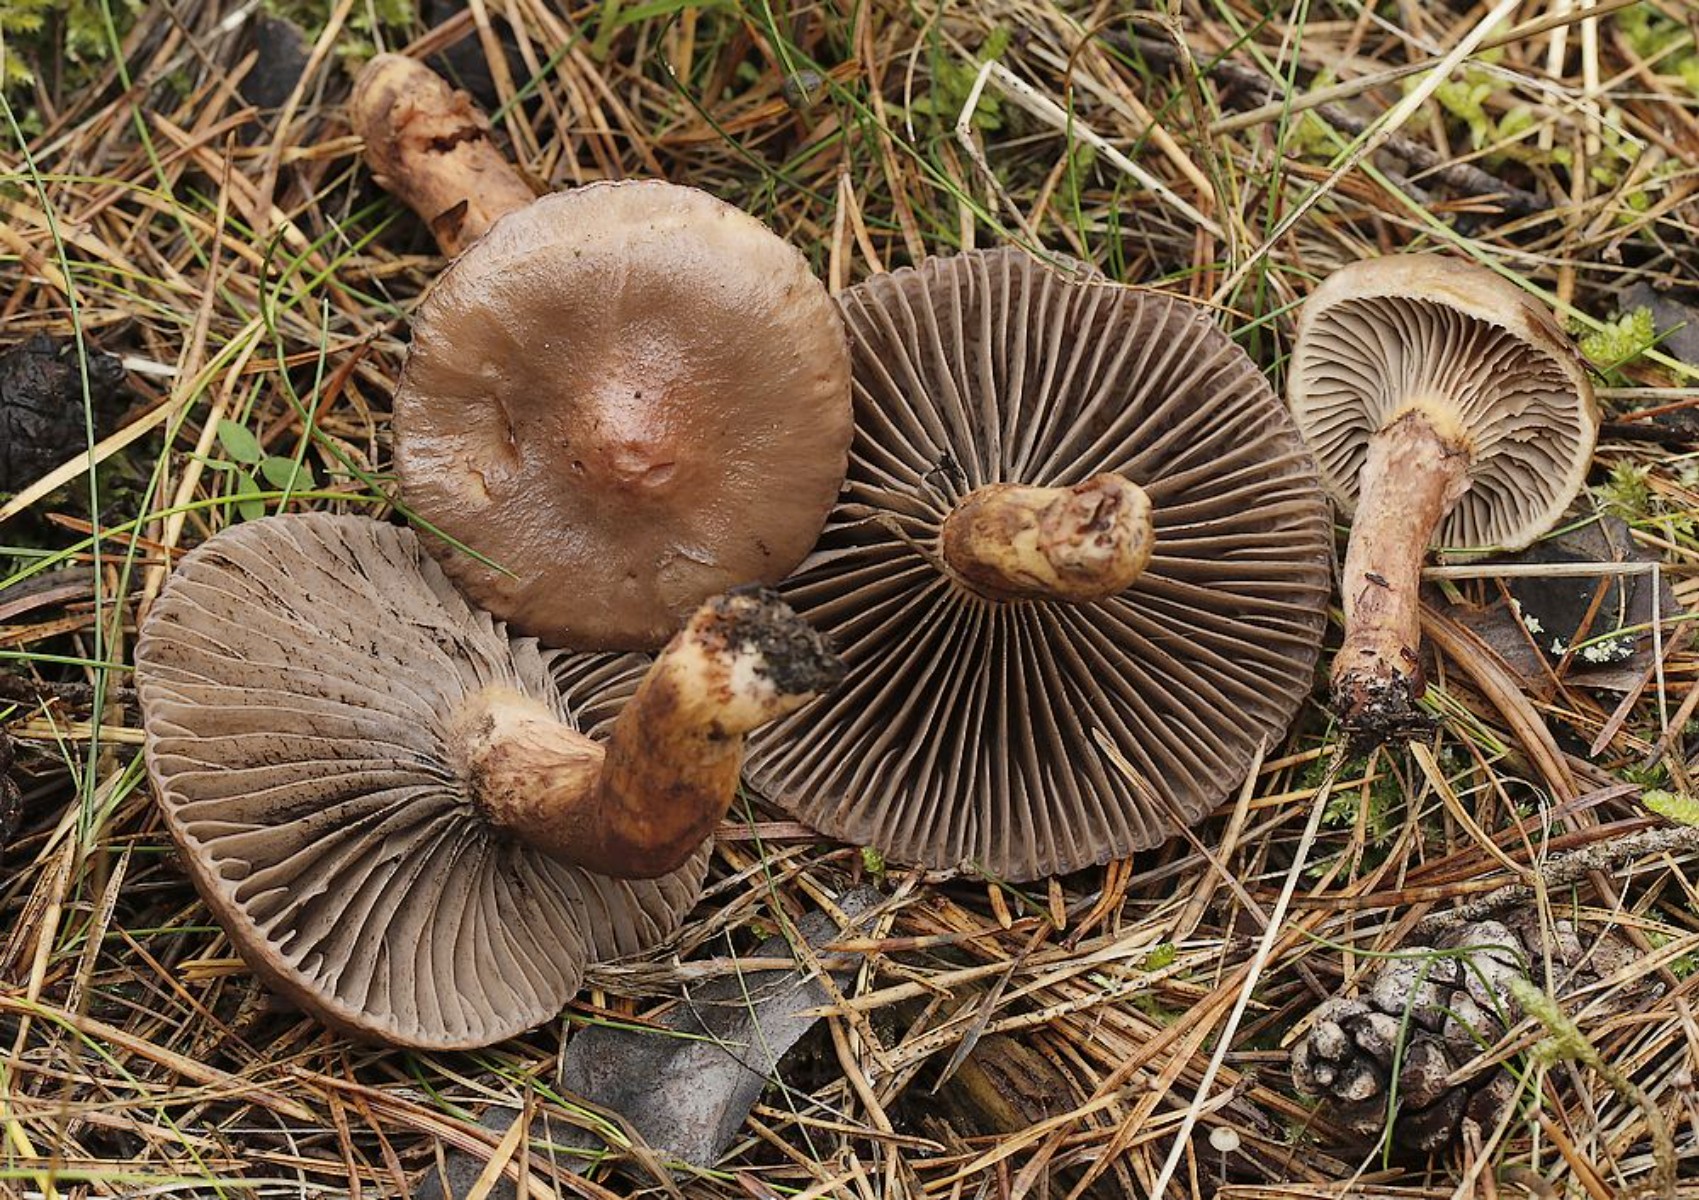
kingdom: Fungi
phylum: Basidiomycota
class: Agaricomycetes
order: Boletales
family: Gomphidiaceae
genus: Chroogomphus
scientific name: Chroogomphus rutilus
